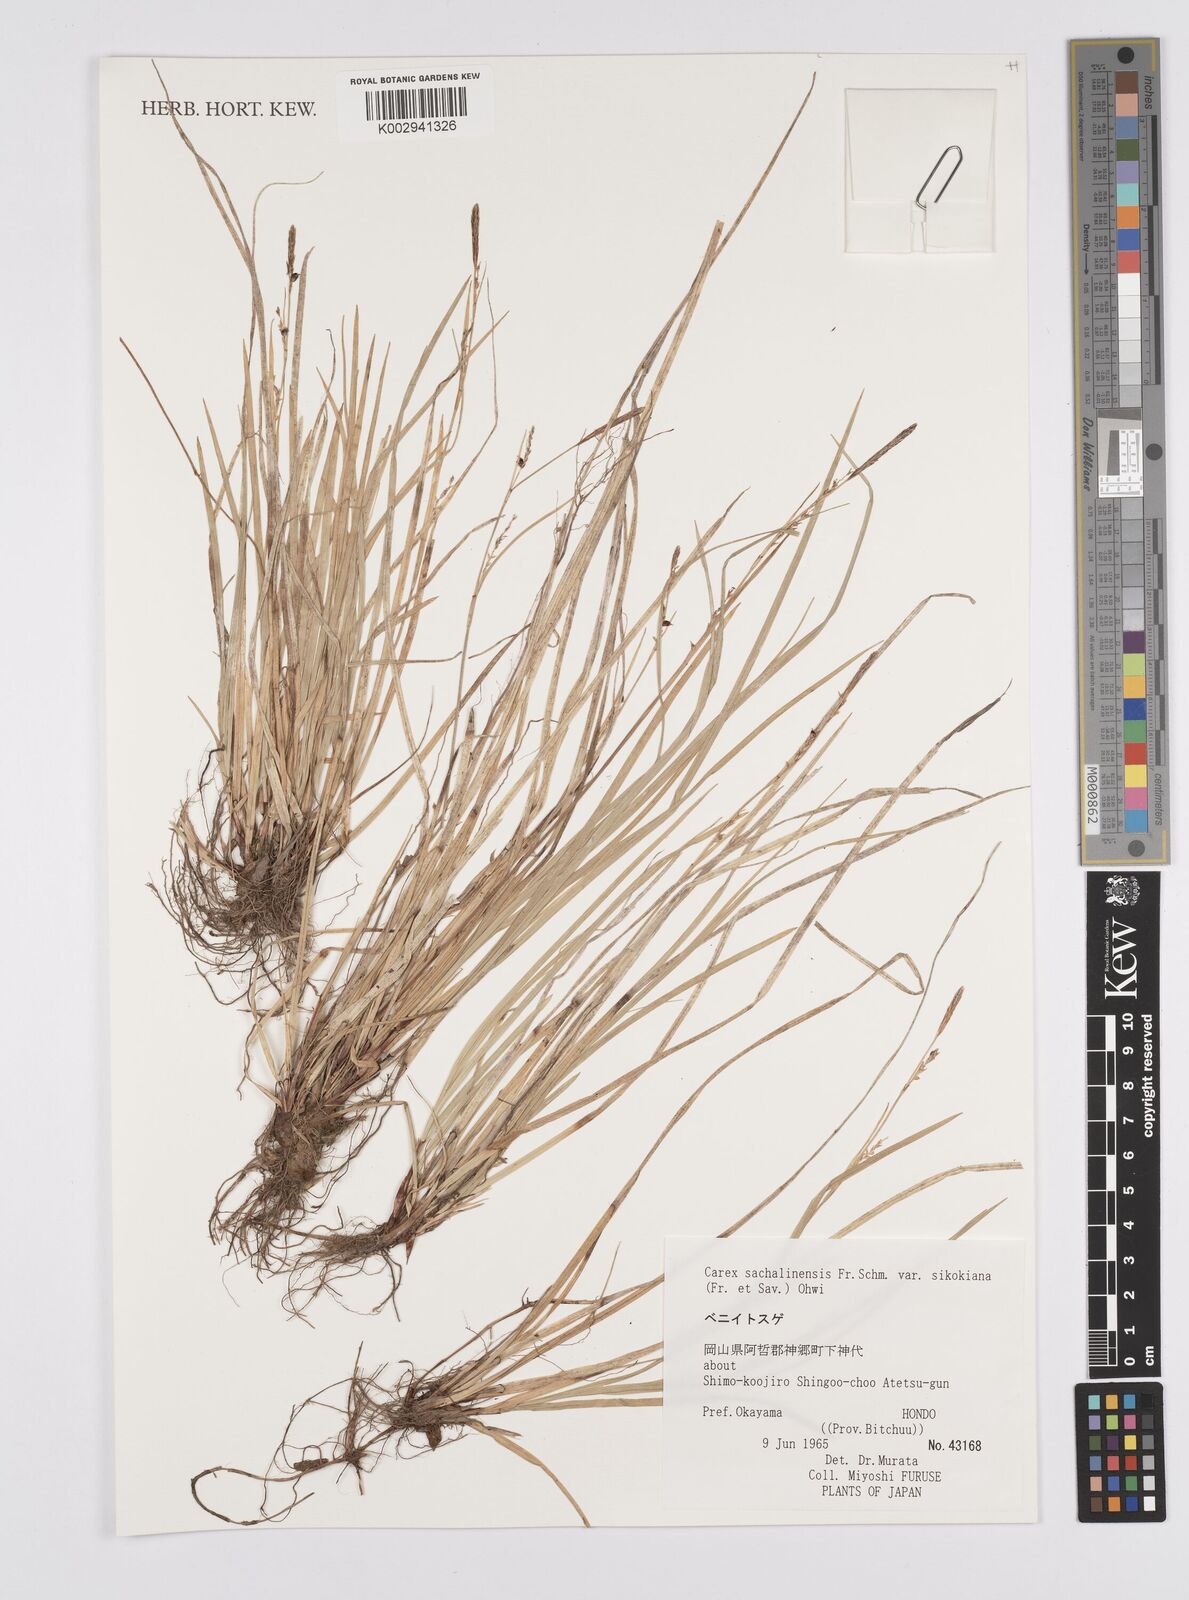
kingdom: Plantae
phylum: Tracheophyta
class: Liliopsida
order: Poales
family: Cyperaceae
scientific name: Cyperaceae
